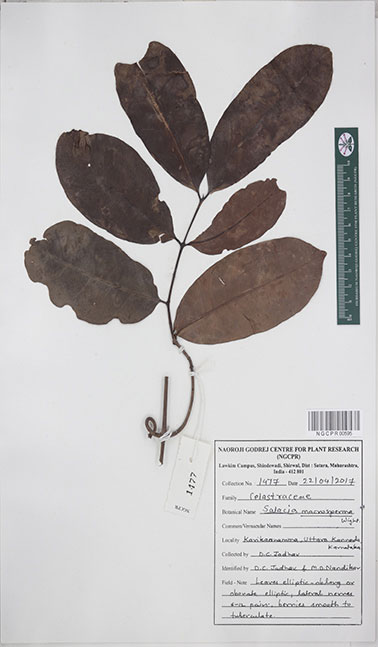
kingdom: Plantae
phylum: Tracheophyta
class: Magnoliopsida
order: Celastrales
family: Celastraceae
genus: Salacia
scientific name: Salacia macrosperma
